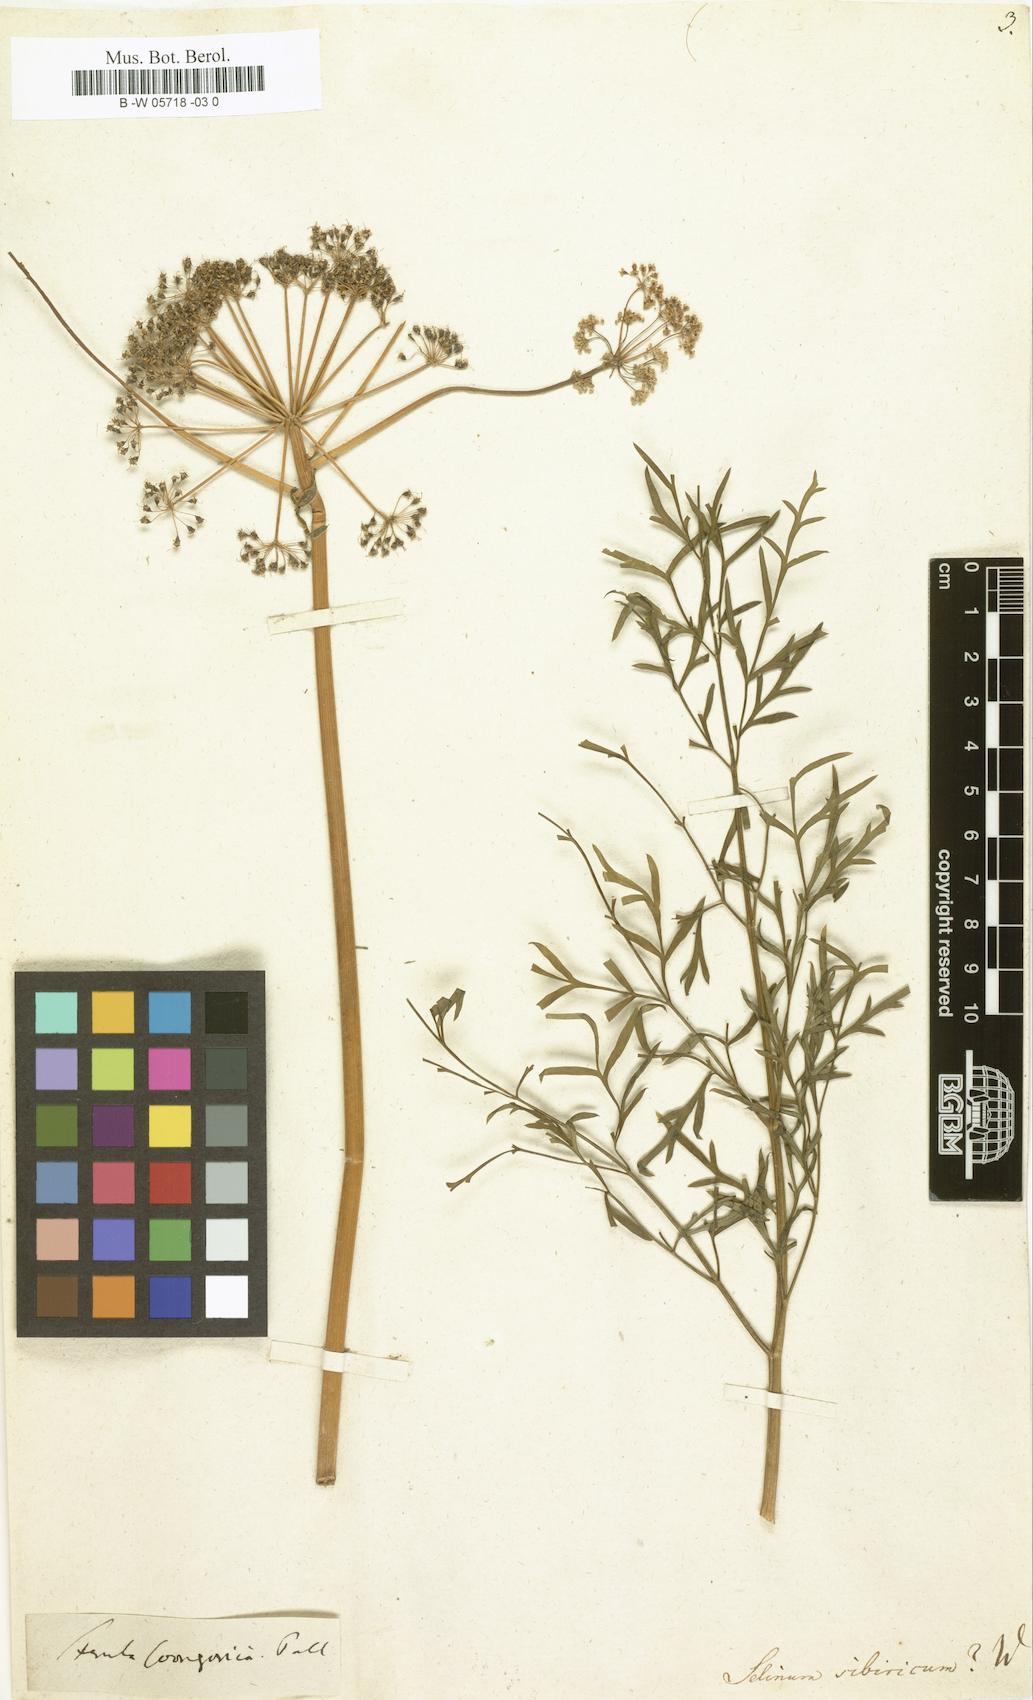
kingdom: Plantae
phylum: Tracheophyta
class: Magnoliopsida
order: Apiales
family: Apiaceae
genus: Pachypleurum
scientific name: Pachypleurum mutellinoides
